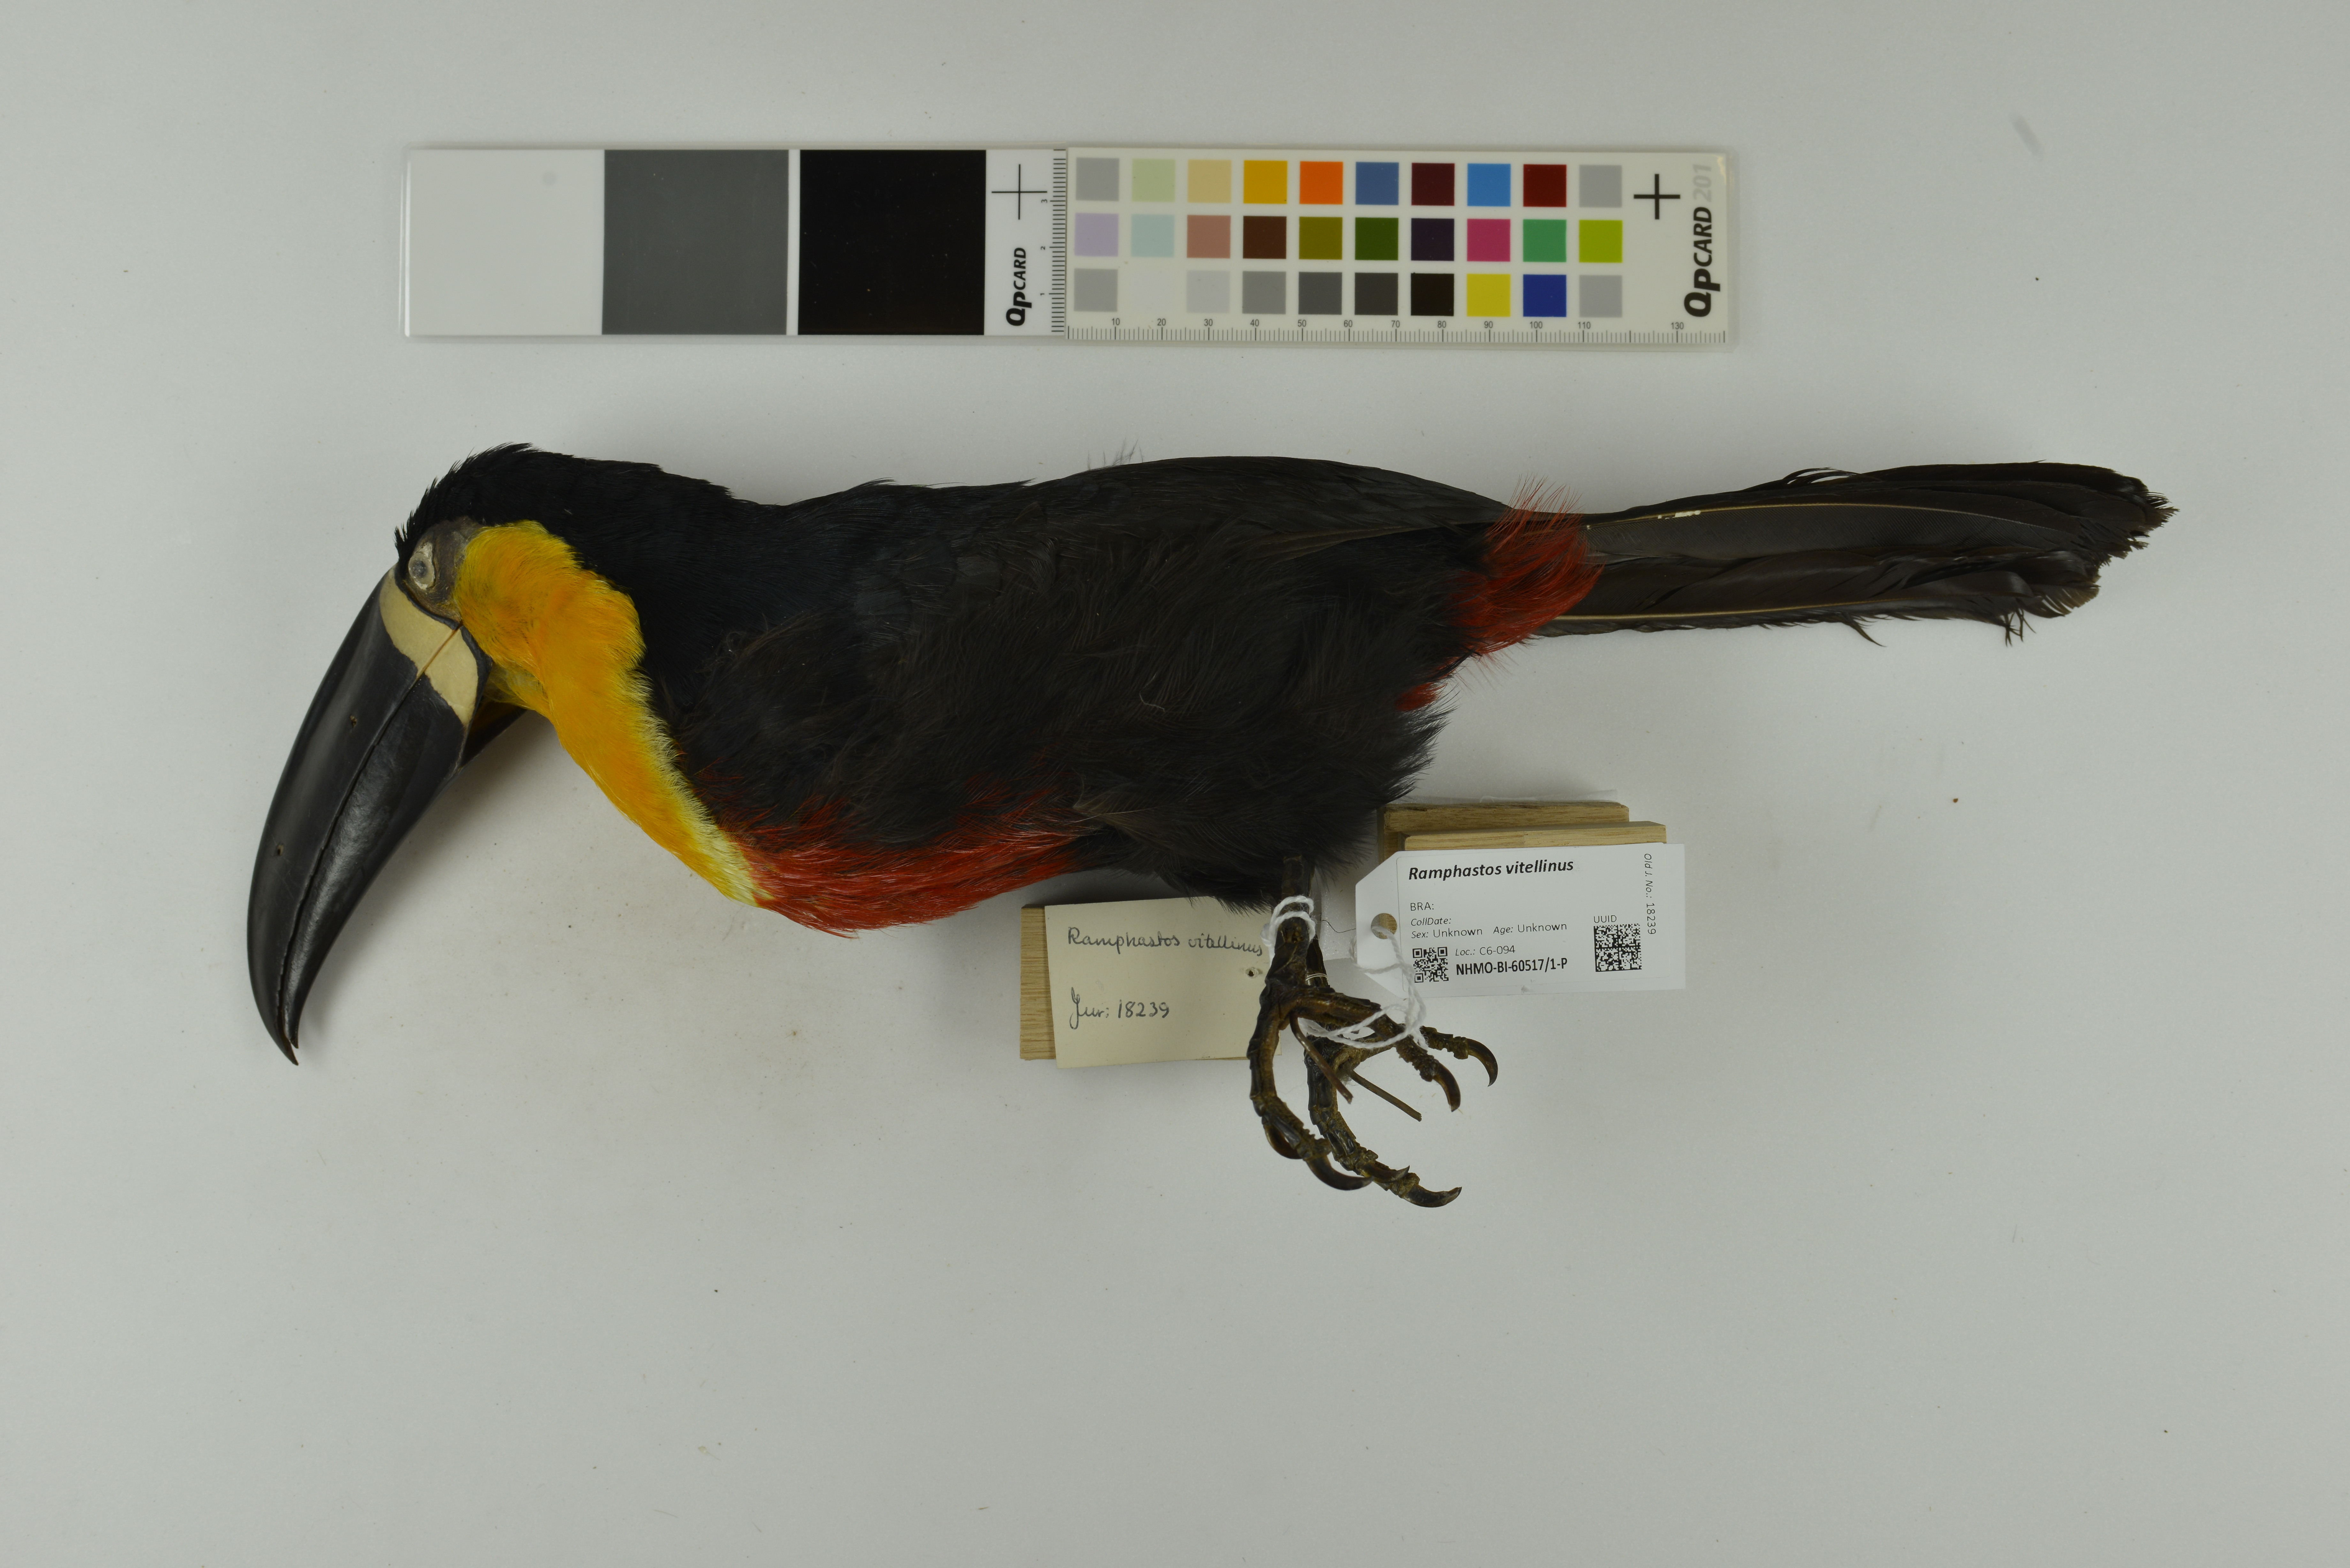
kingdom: Animalia
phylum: Chordata
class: Aves
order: Piciformes
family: Ramphastidae
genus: Ramphastos
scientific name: Ramphastos vitellinus
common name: Channel-billed toucan
